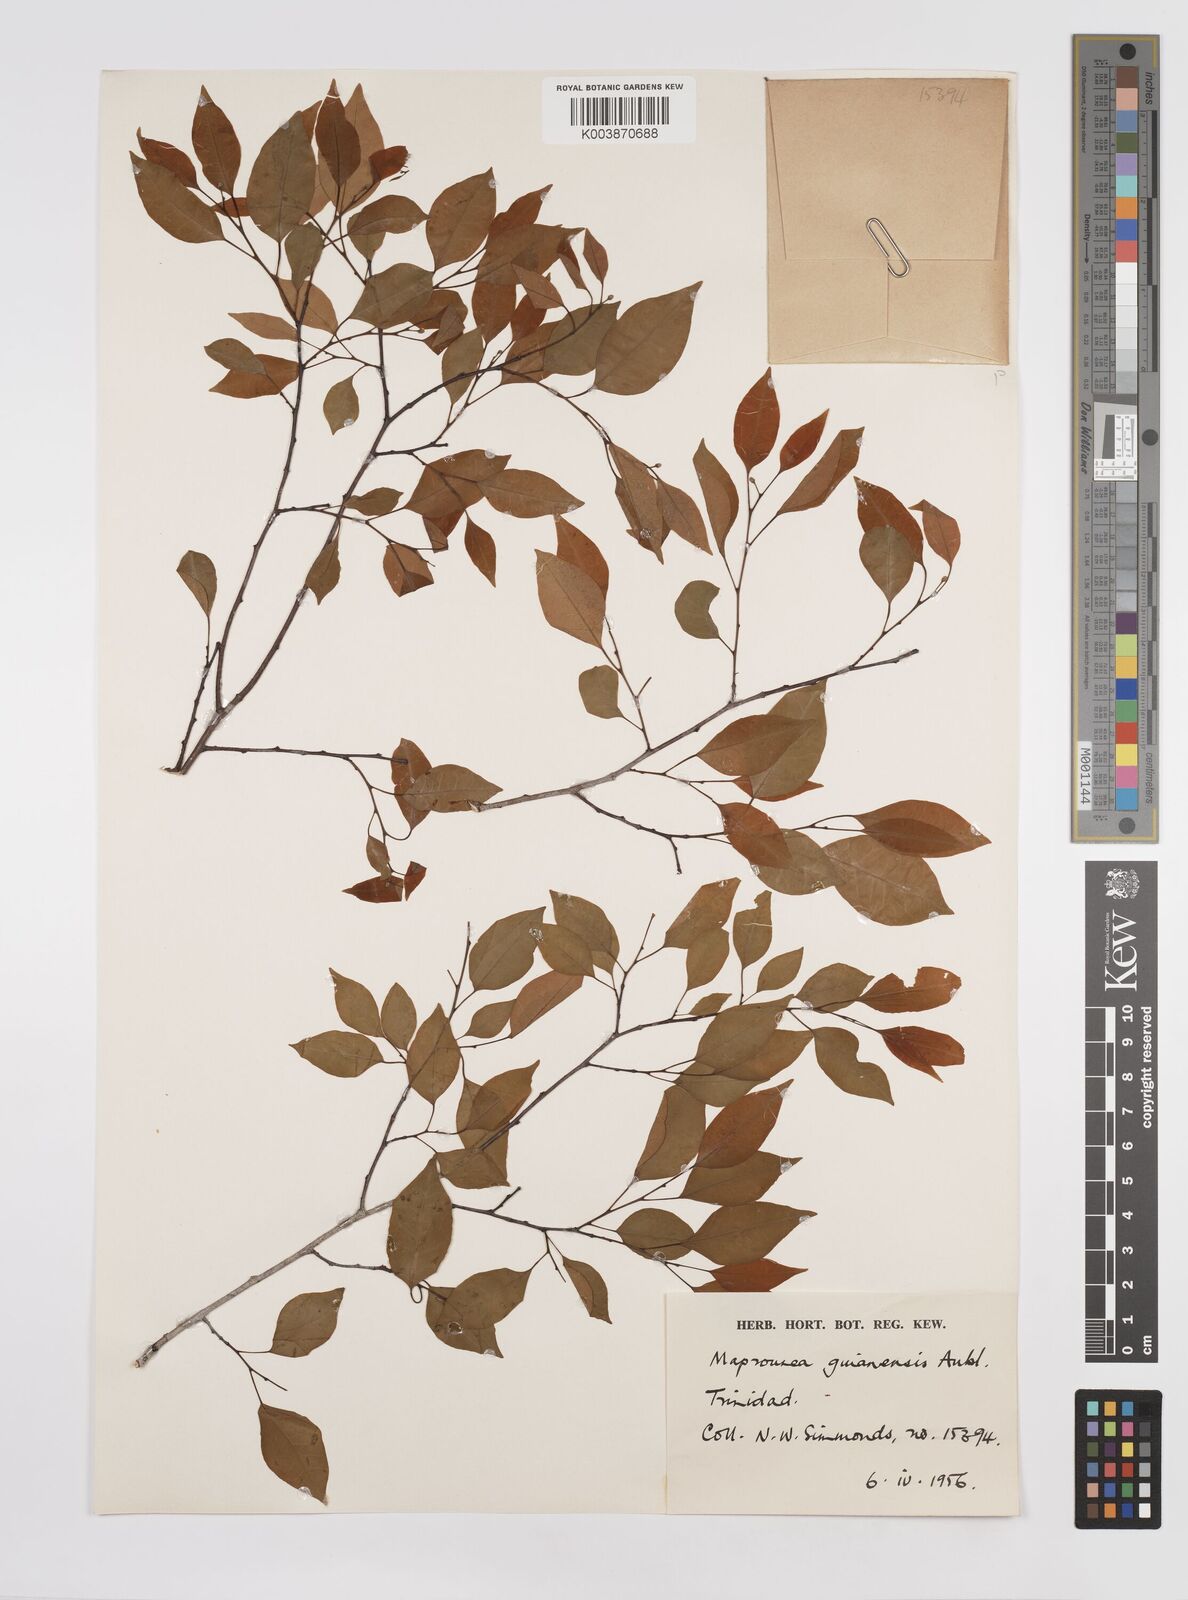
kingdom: Plantae
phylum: Tracheophyta
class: Magnoliopsida
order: Malpighiales
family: Euphorbiaceae
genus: Maprounea
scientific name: Maprounea guianensis
